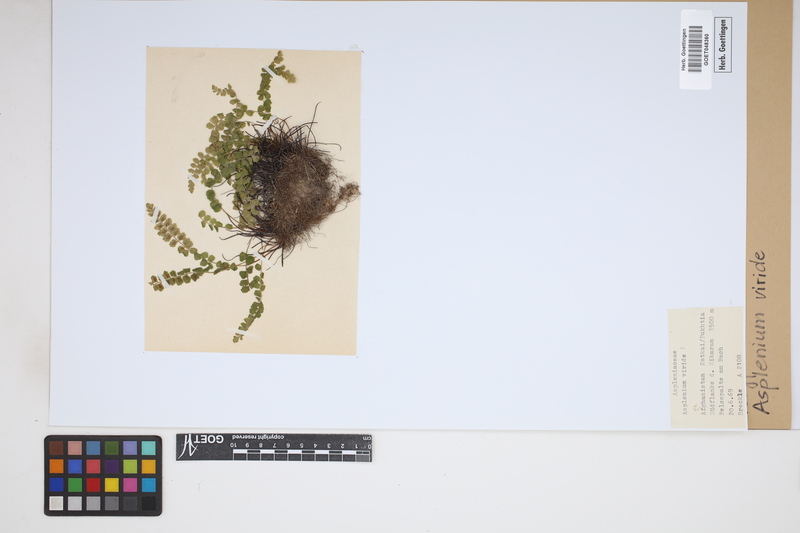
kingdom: Plantae
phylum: Tracheophyta
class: Polypodiopsida
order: Polypodiales
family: Aspleniaceae
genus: Asplenium
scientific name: Asplenium viride
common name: Green spleenwort
